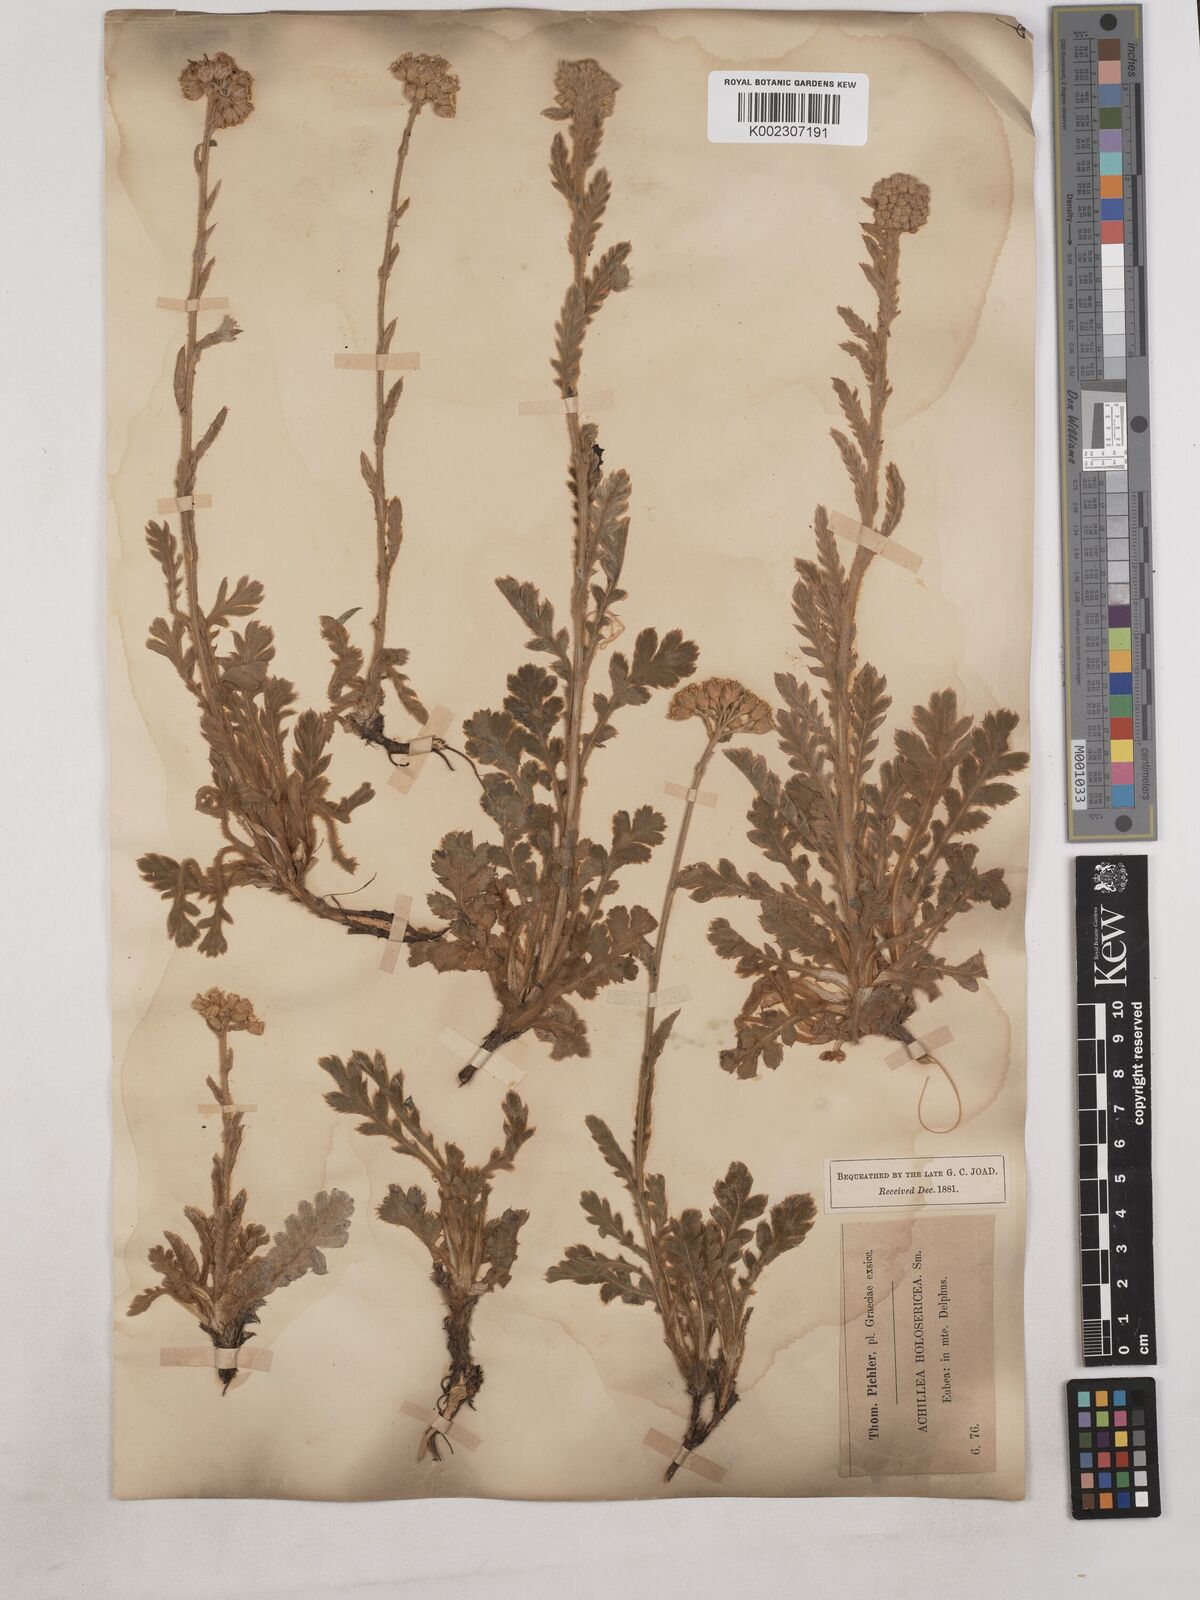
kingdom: Plantae
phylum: Tracheophyta
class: Magnoliopsida
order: Asterales
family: Asteraceae
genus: Achillea
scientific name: Achillea holosericea
